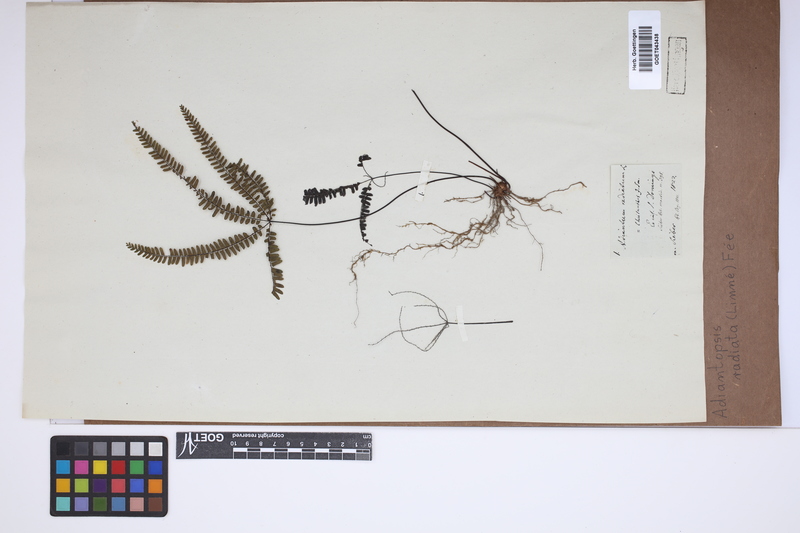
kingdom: Plantae
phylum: Tracheophyta
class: Polypodiopsida
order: Polypodiales
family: Pteridaceae
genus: Adiantopsis
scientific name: Adiantopsis radiata
